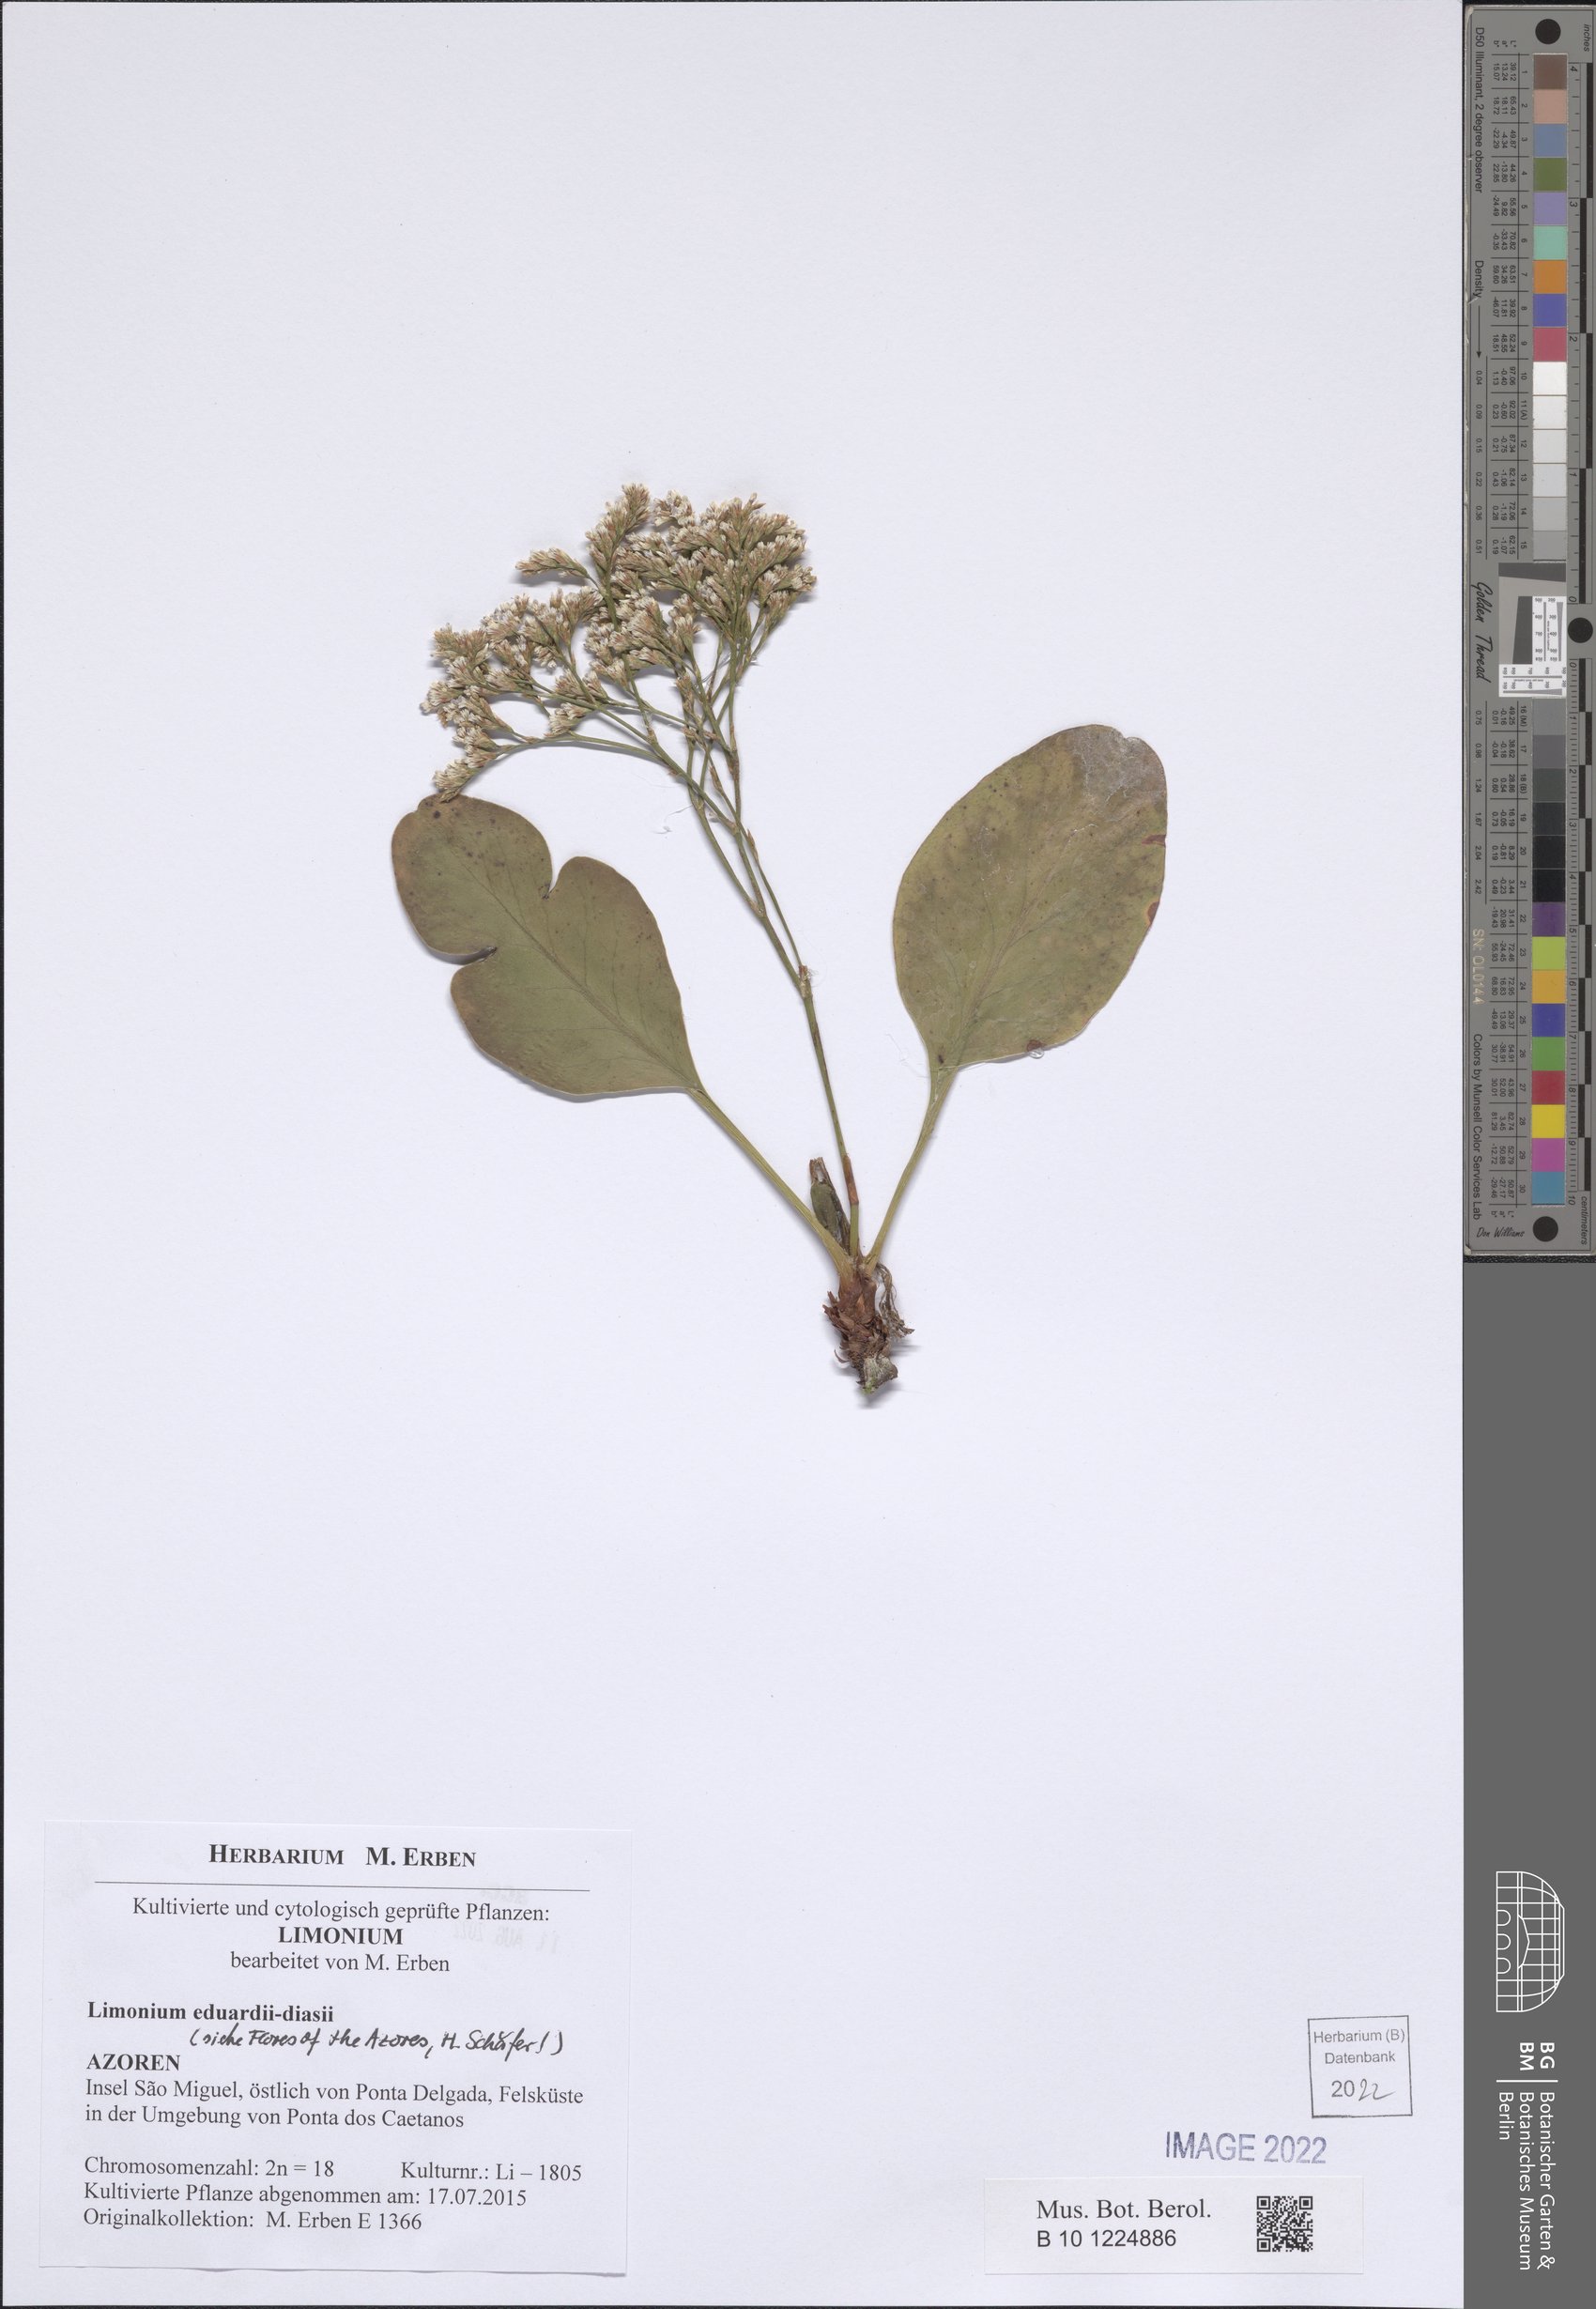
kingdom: Plantae
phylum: Tracheophyta
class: Magnoliopsida
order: Caryophyllales
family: Plumbaginaceae
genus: Limonium
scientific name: Limonium eduardi-diasii
